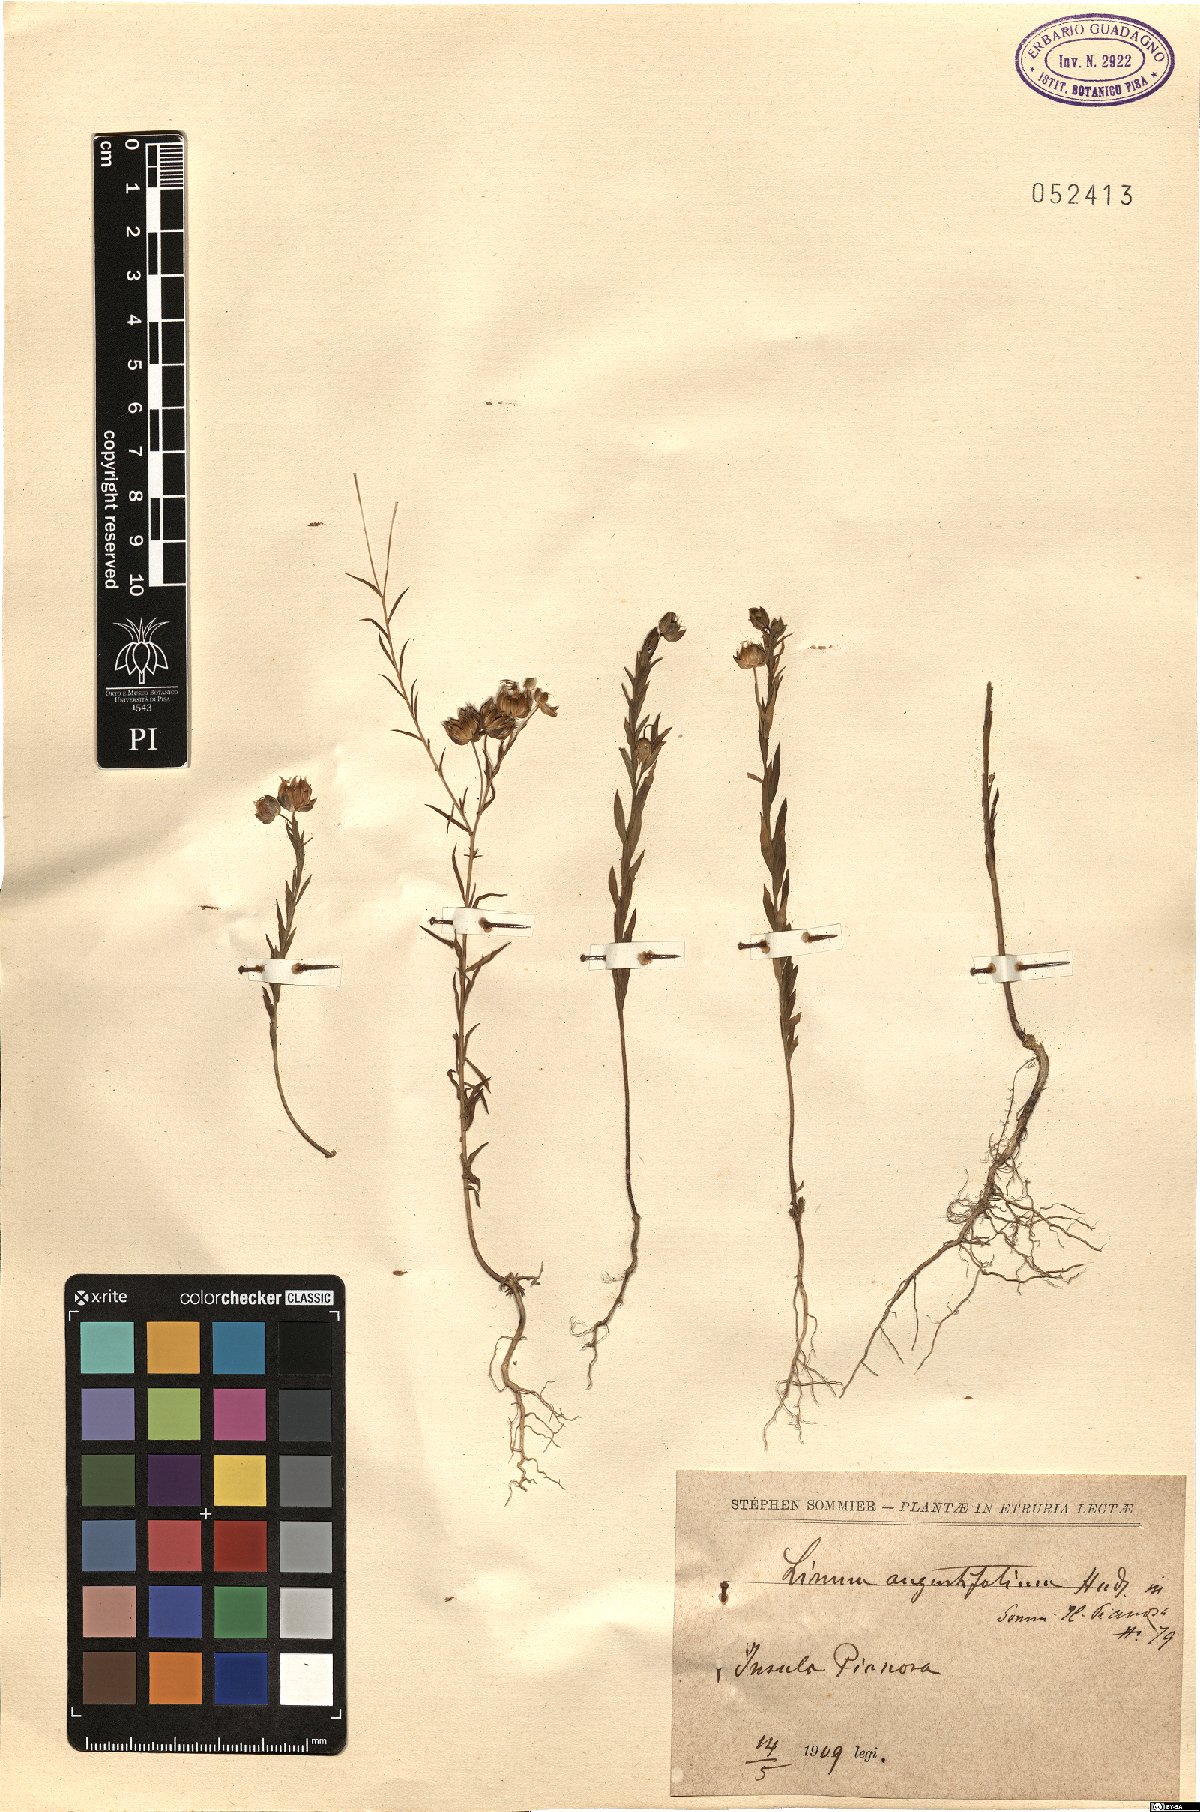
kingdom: Plantae
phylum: Tracheophyta
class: Magnoliopsida
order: Malpighiales
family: Linaceae
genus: Linum
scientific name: Linum bienne
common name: Pale flax
